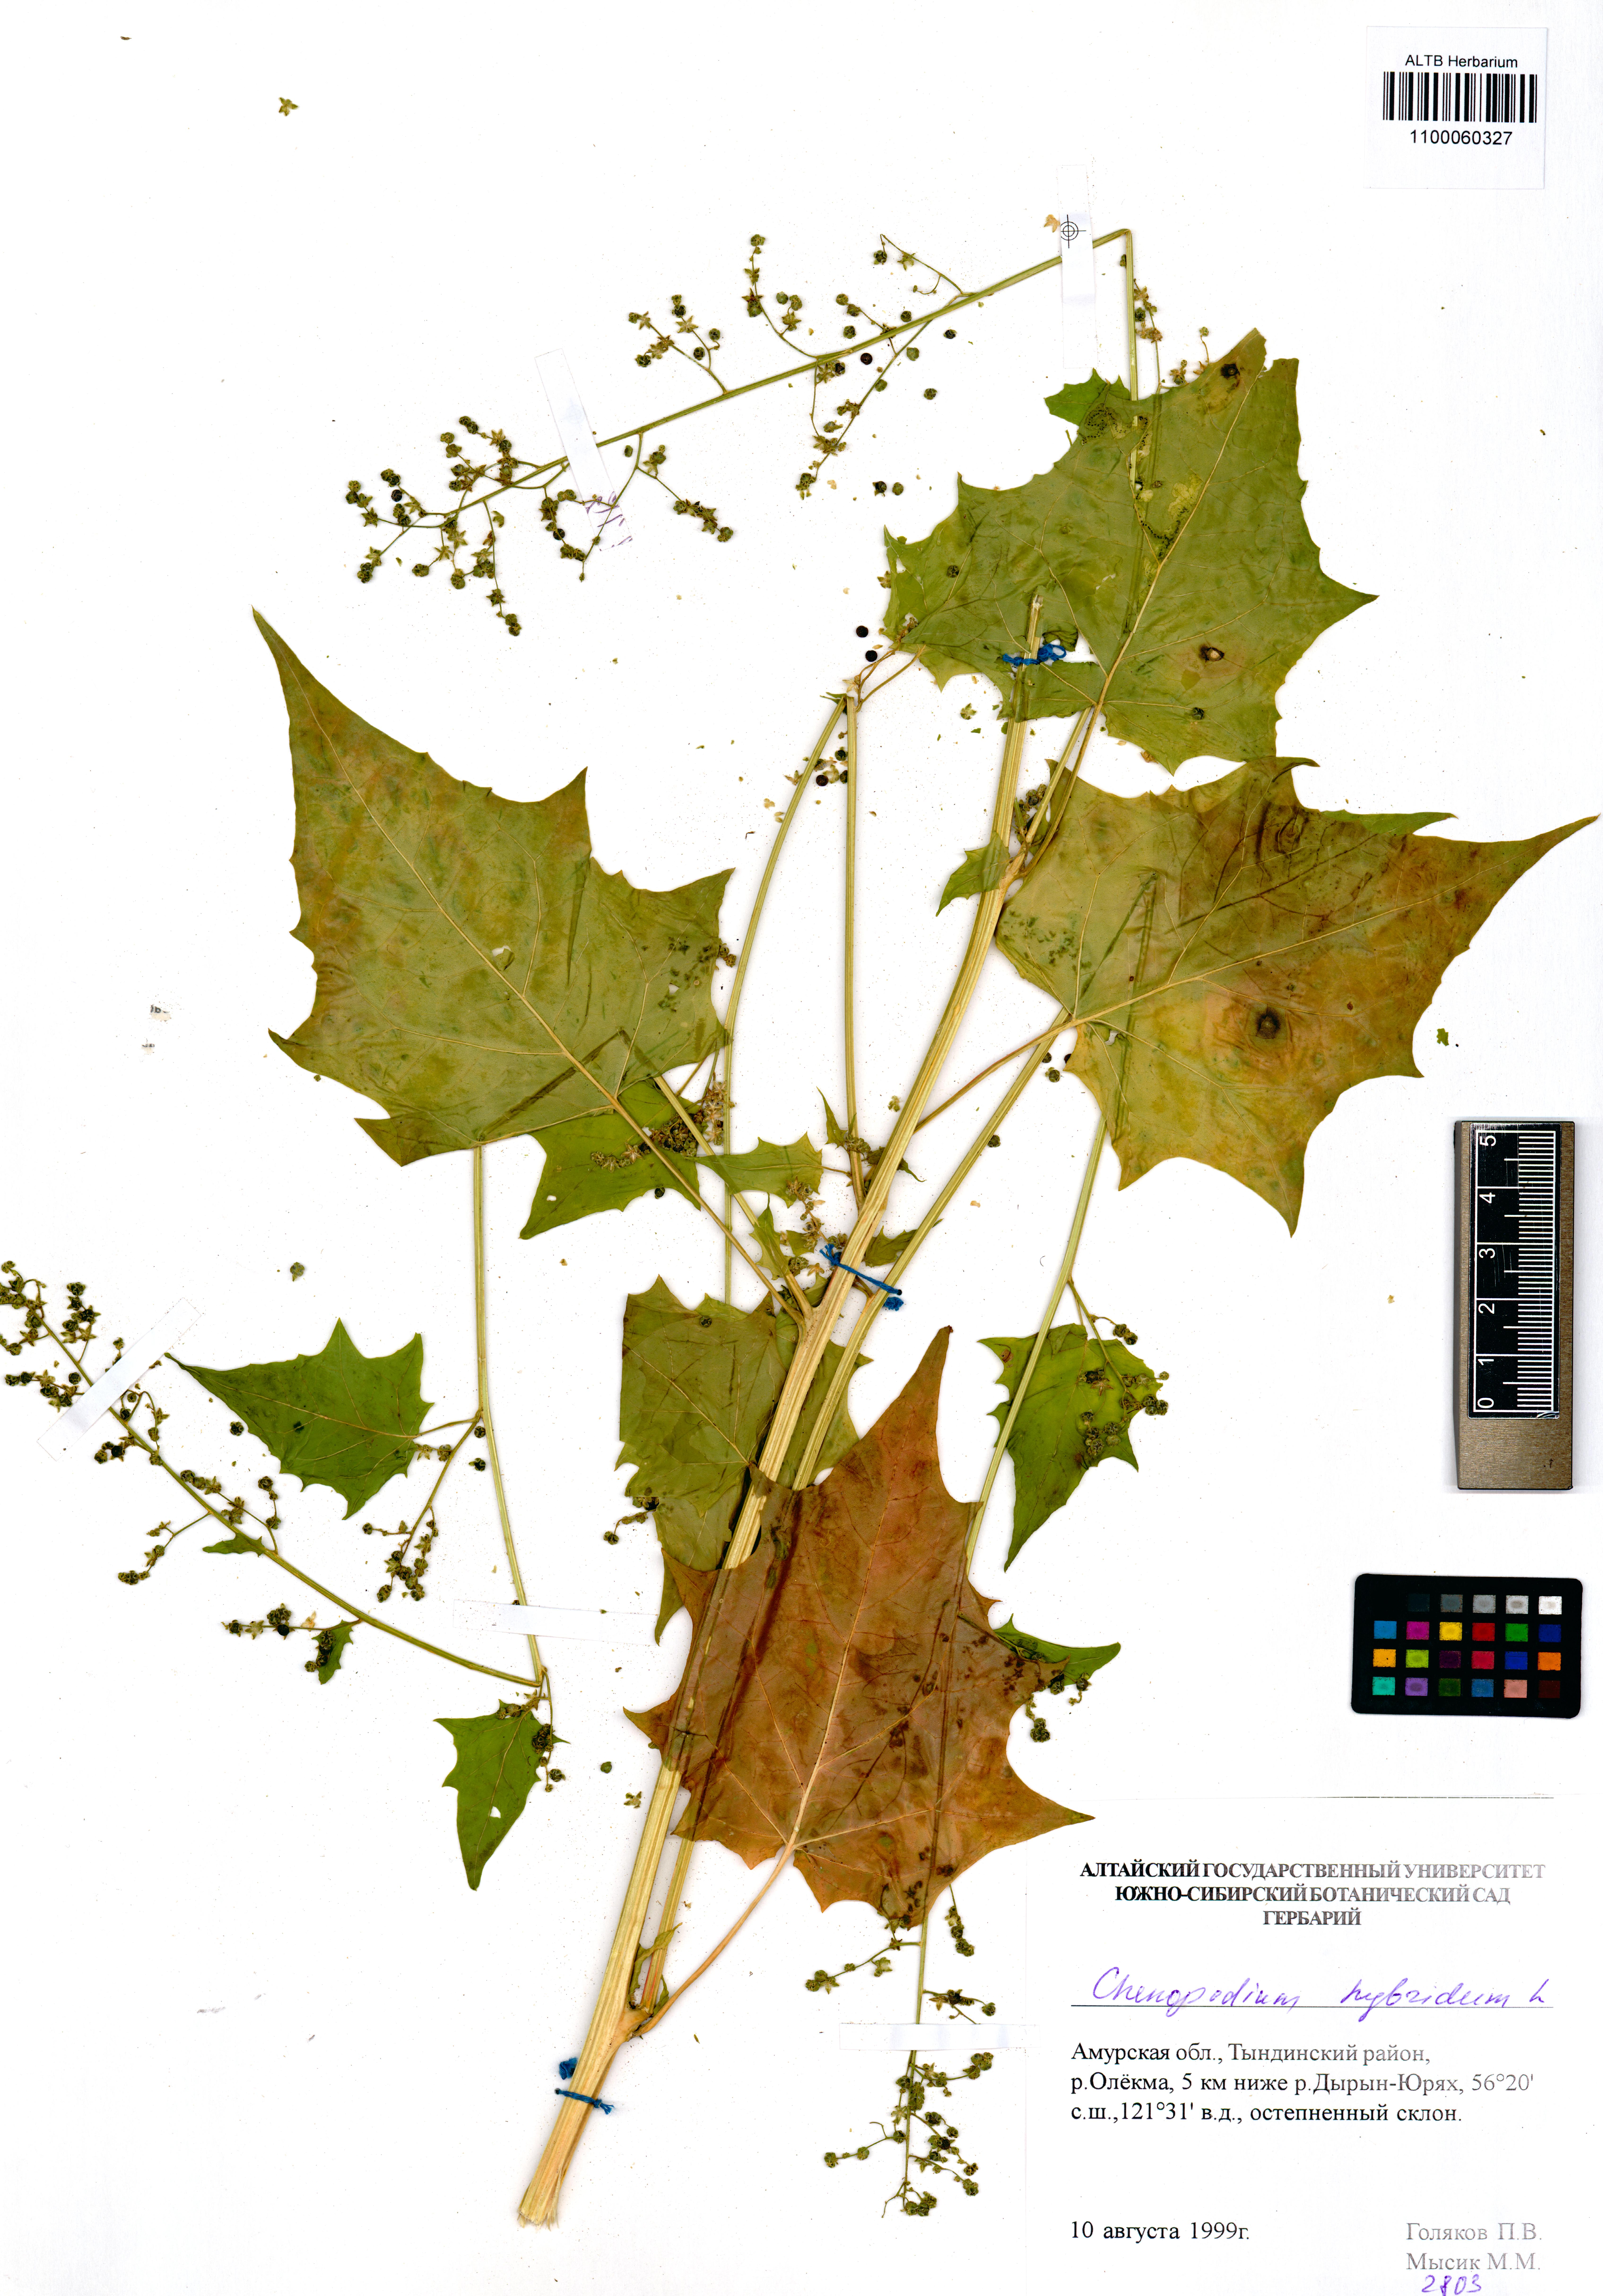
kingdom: Plantae
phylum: Tracheophyta
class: Magnoliopsida
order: Caryophyllales
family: Amaranthaceae
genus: Chenopodiastrum
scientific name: Chenopodiastrum hybridum
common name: Mapleleaf goosefoot
